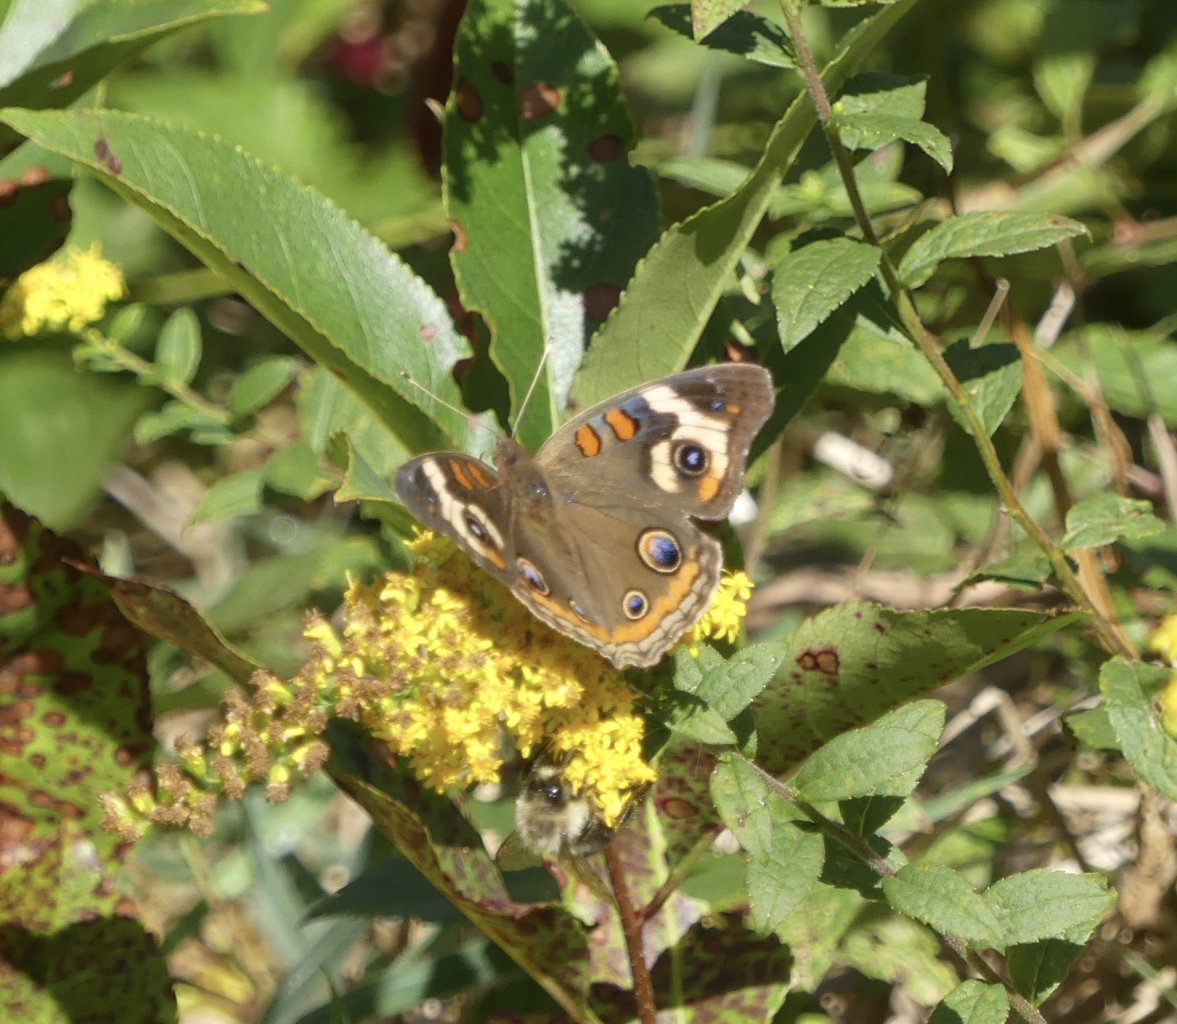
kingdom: Animalia
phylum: Arthropoda
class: Insecta
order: Lepidoptera
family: Nymphalidae
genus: Junonia
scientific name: Junonia coenia
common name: Common Buckeye
